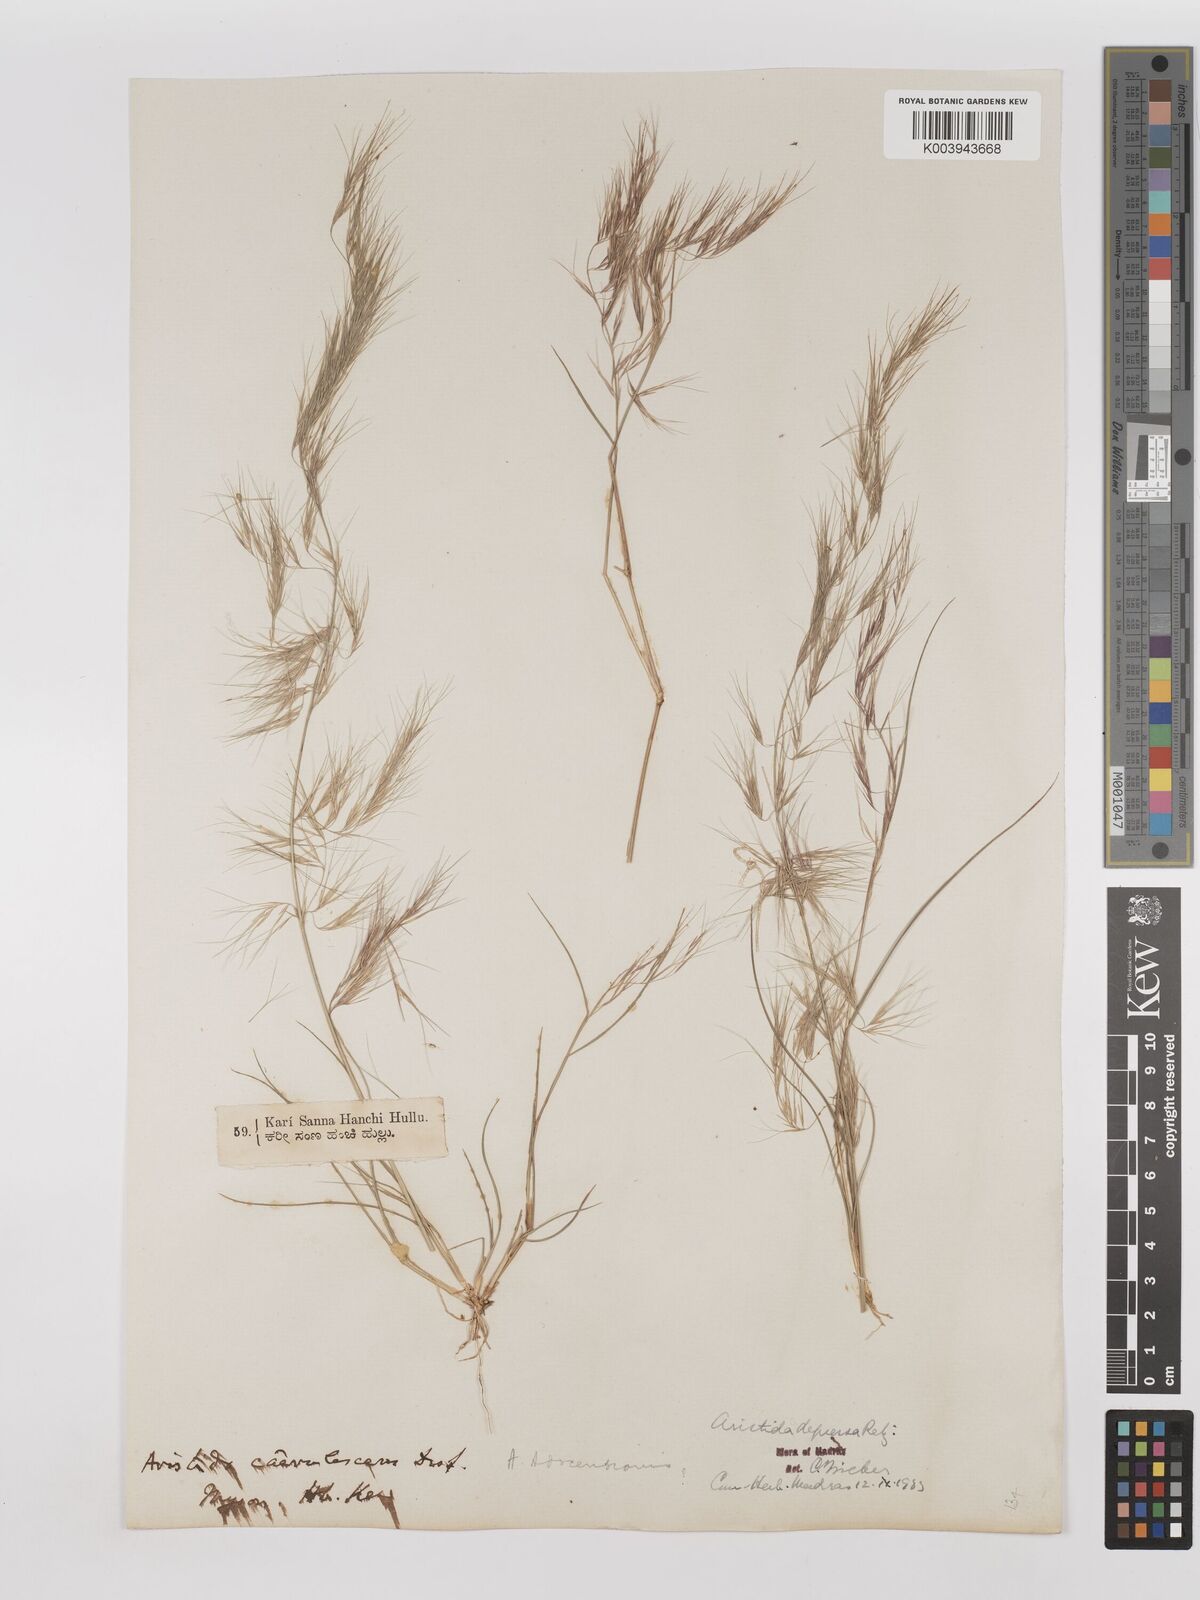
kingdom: Plantae
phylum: Tracheophyta
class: Liliopsida
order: Poales
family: Poaceae
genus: Aristida
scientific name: Aristida adscensionis
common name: Sixweeks threeawn
